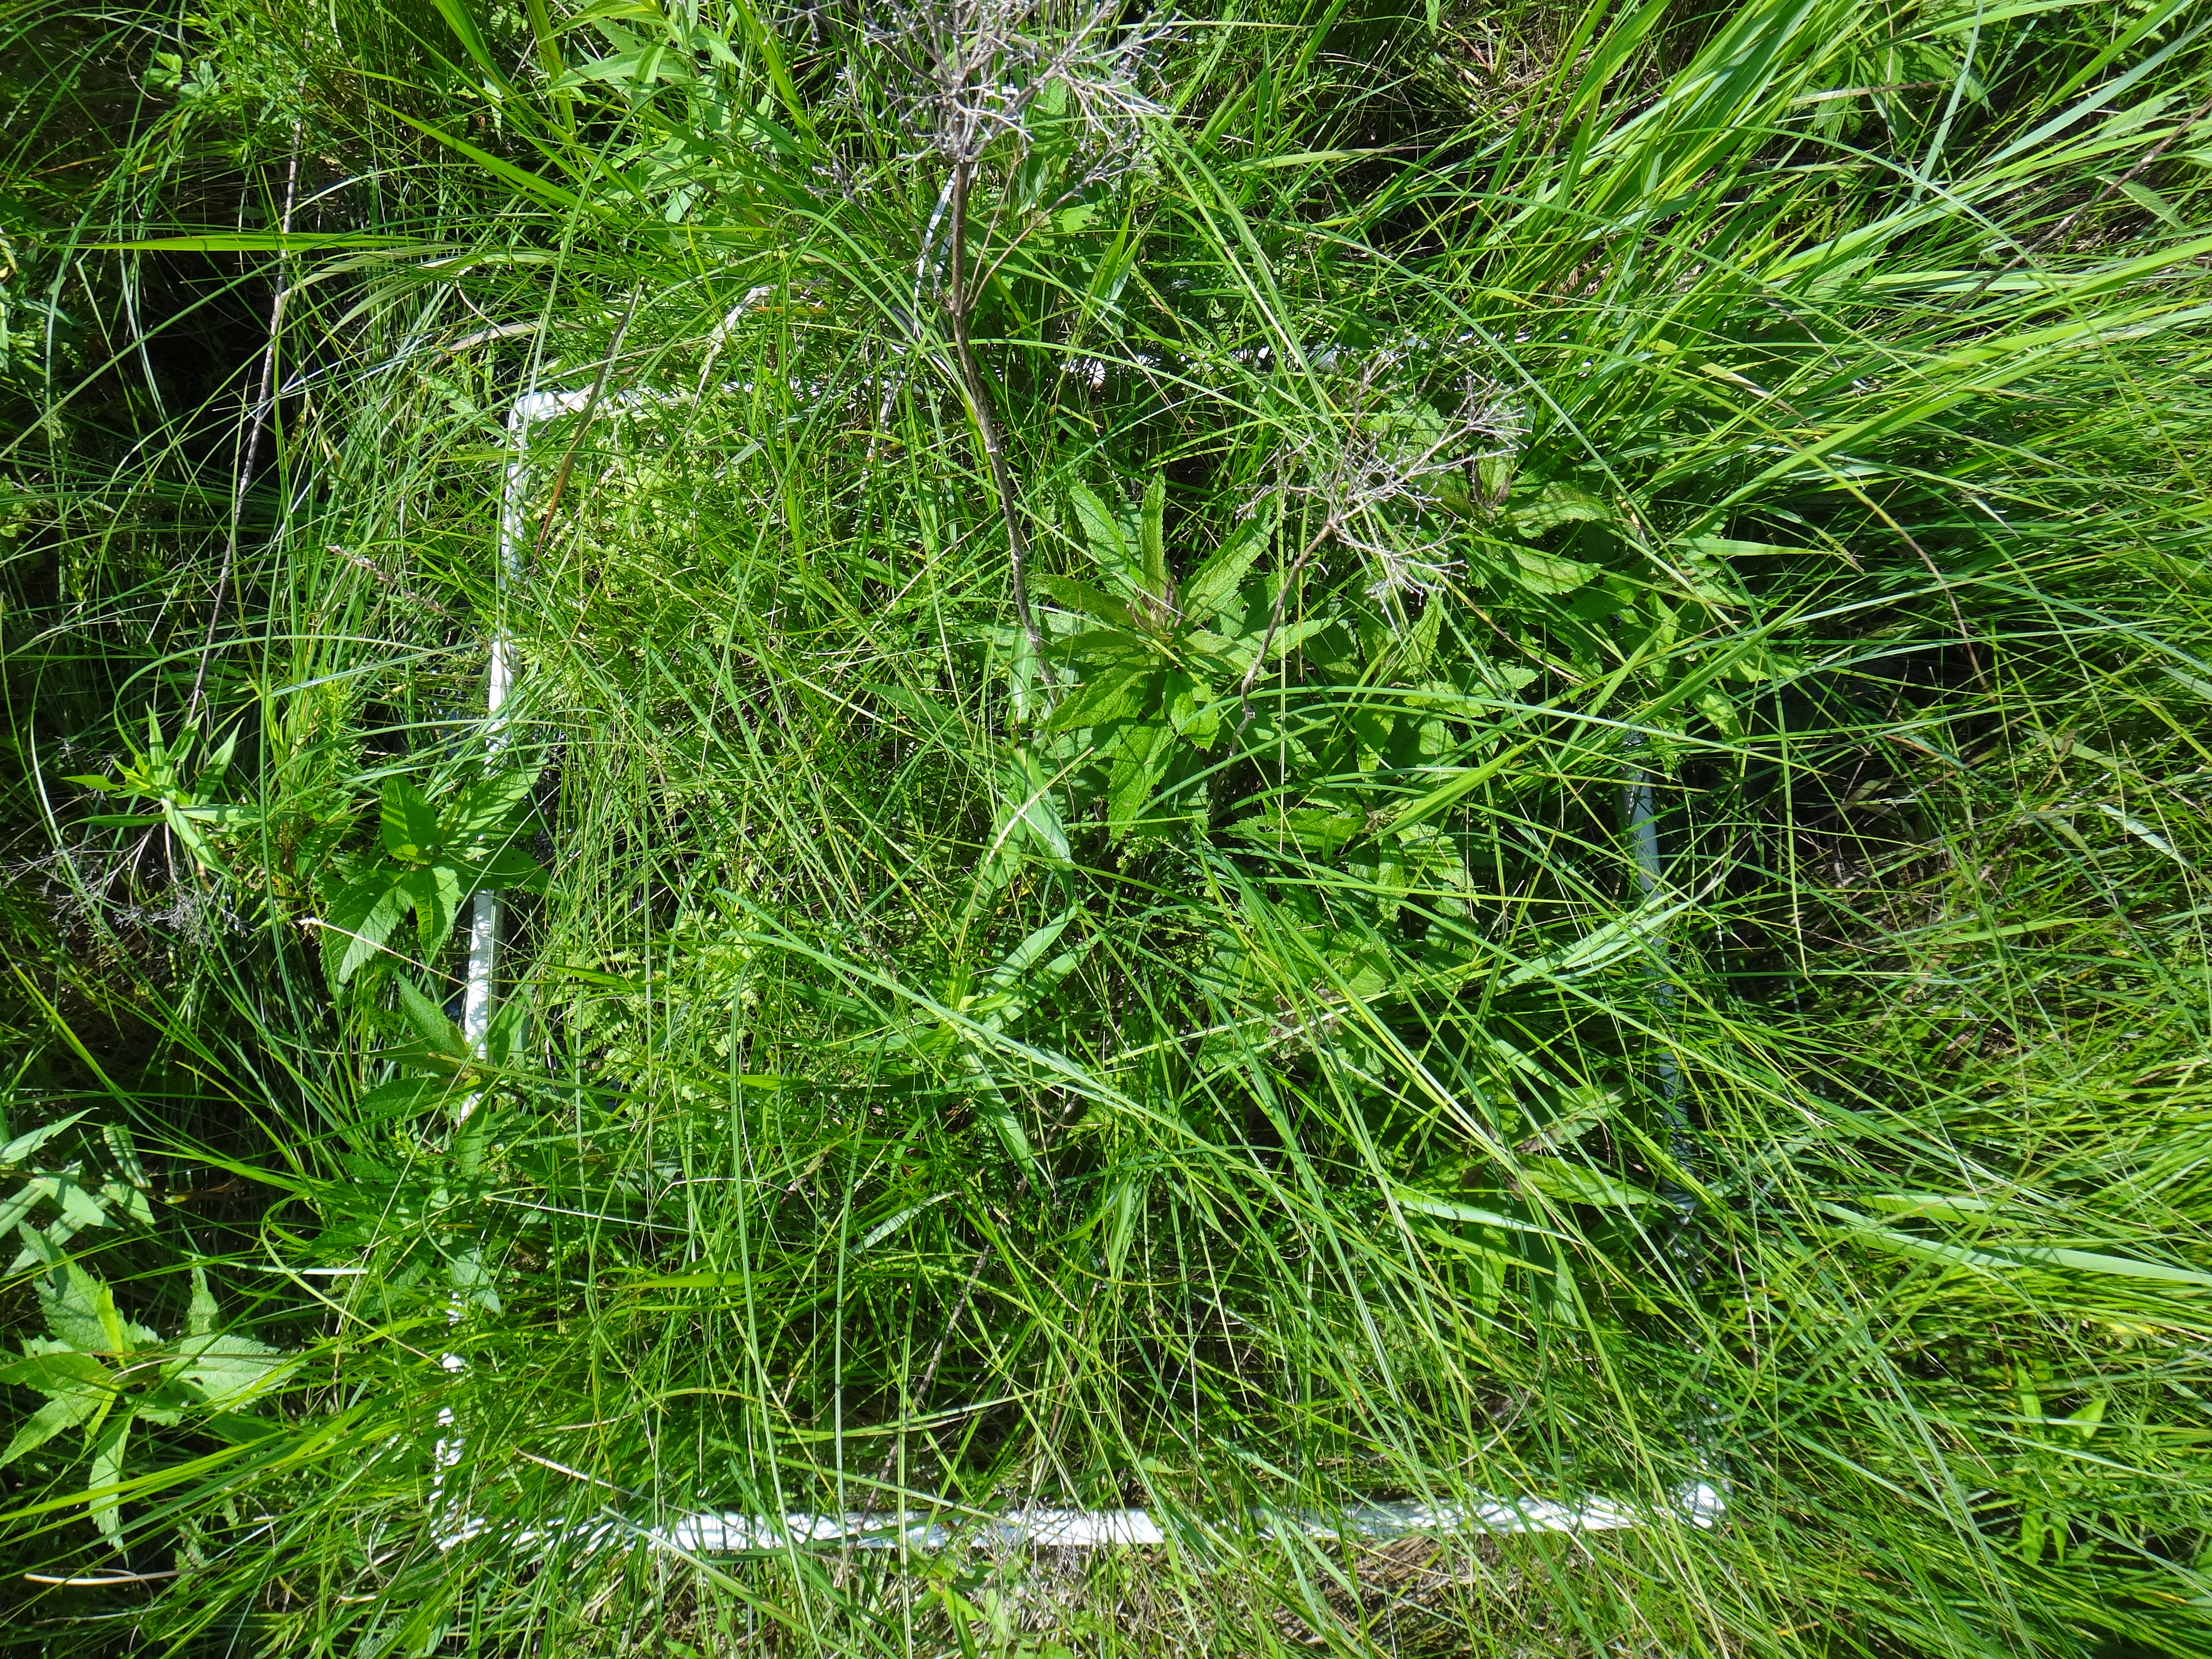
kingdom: Plantae
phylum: Tracheophyta
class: Magnoliopsida
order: Caryophyllales
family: Polygonaceae
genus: Persicaria
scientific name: Persicaria amphibia
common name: Amphibious bistort
